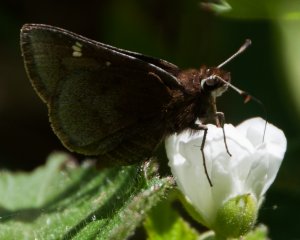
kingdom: Animalia
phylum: Arthropoda
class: Insecta
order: Lepidoptera
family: Hesperiidae
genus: Atrytonopsis
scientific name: Atrytonopsis hianna
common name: Dusted Skipper
